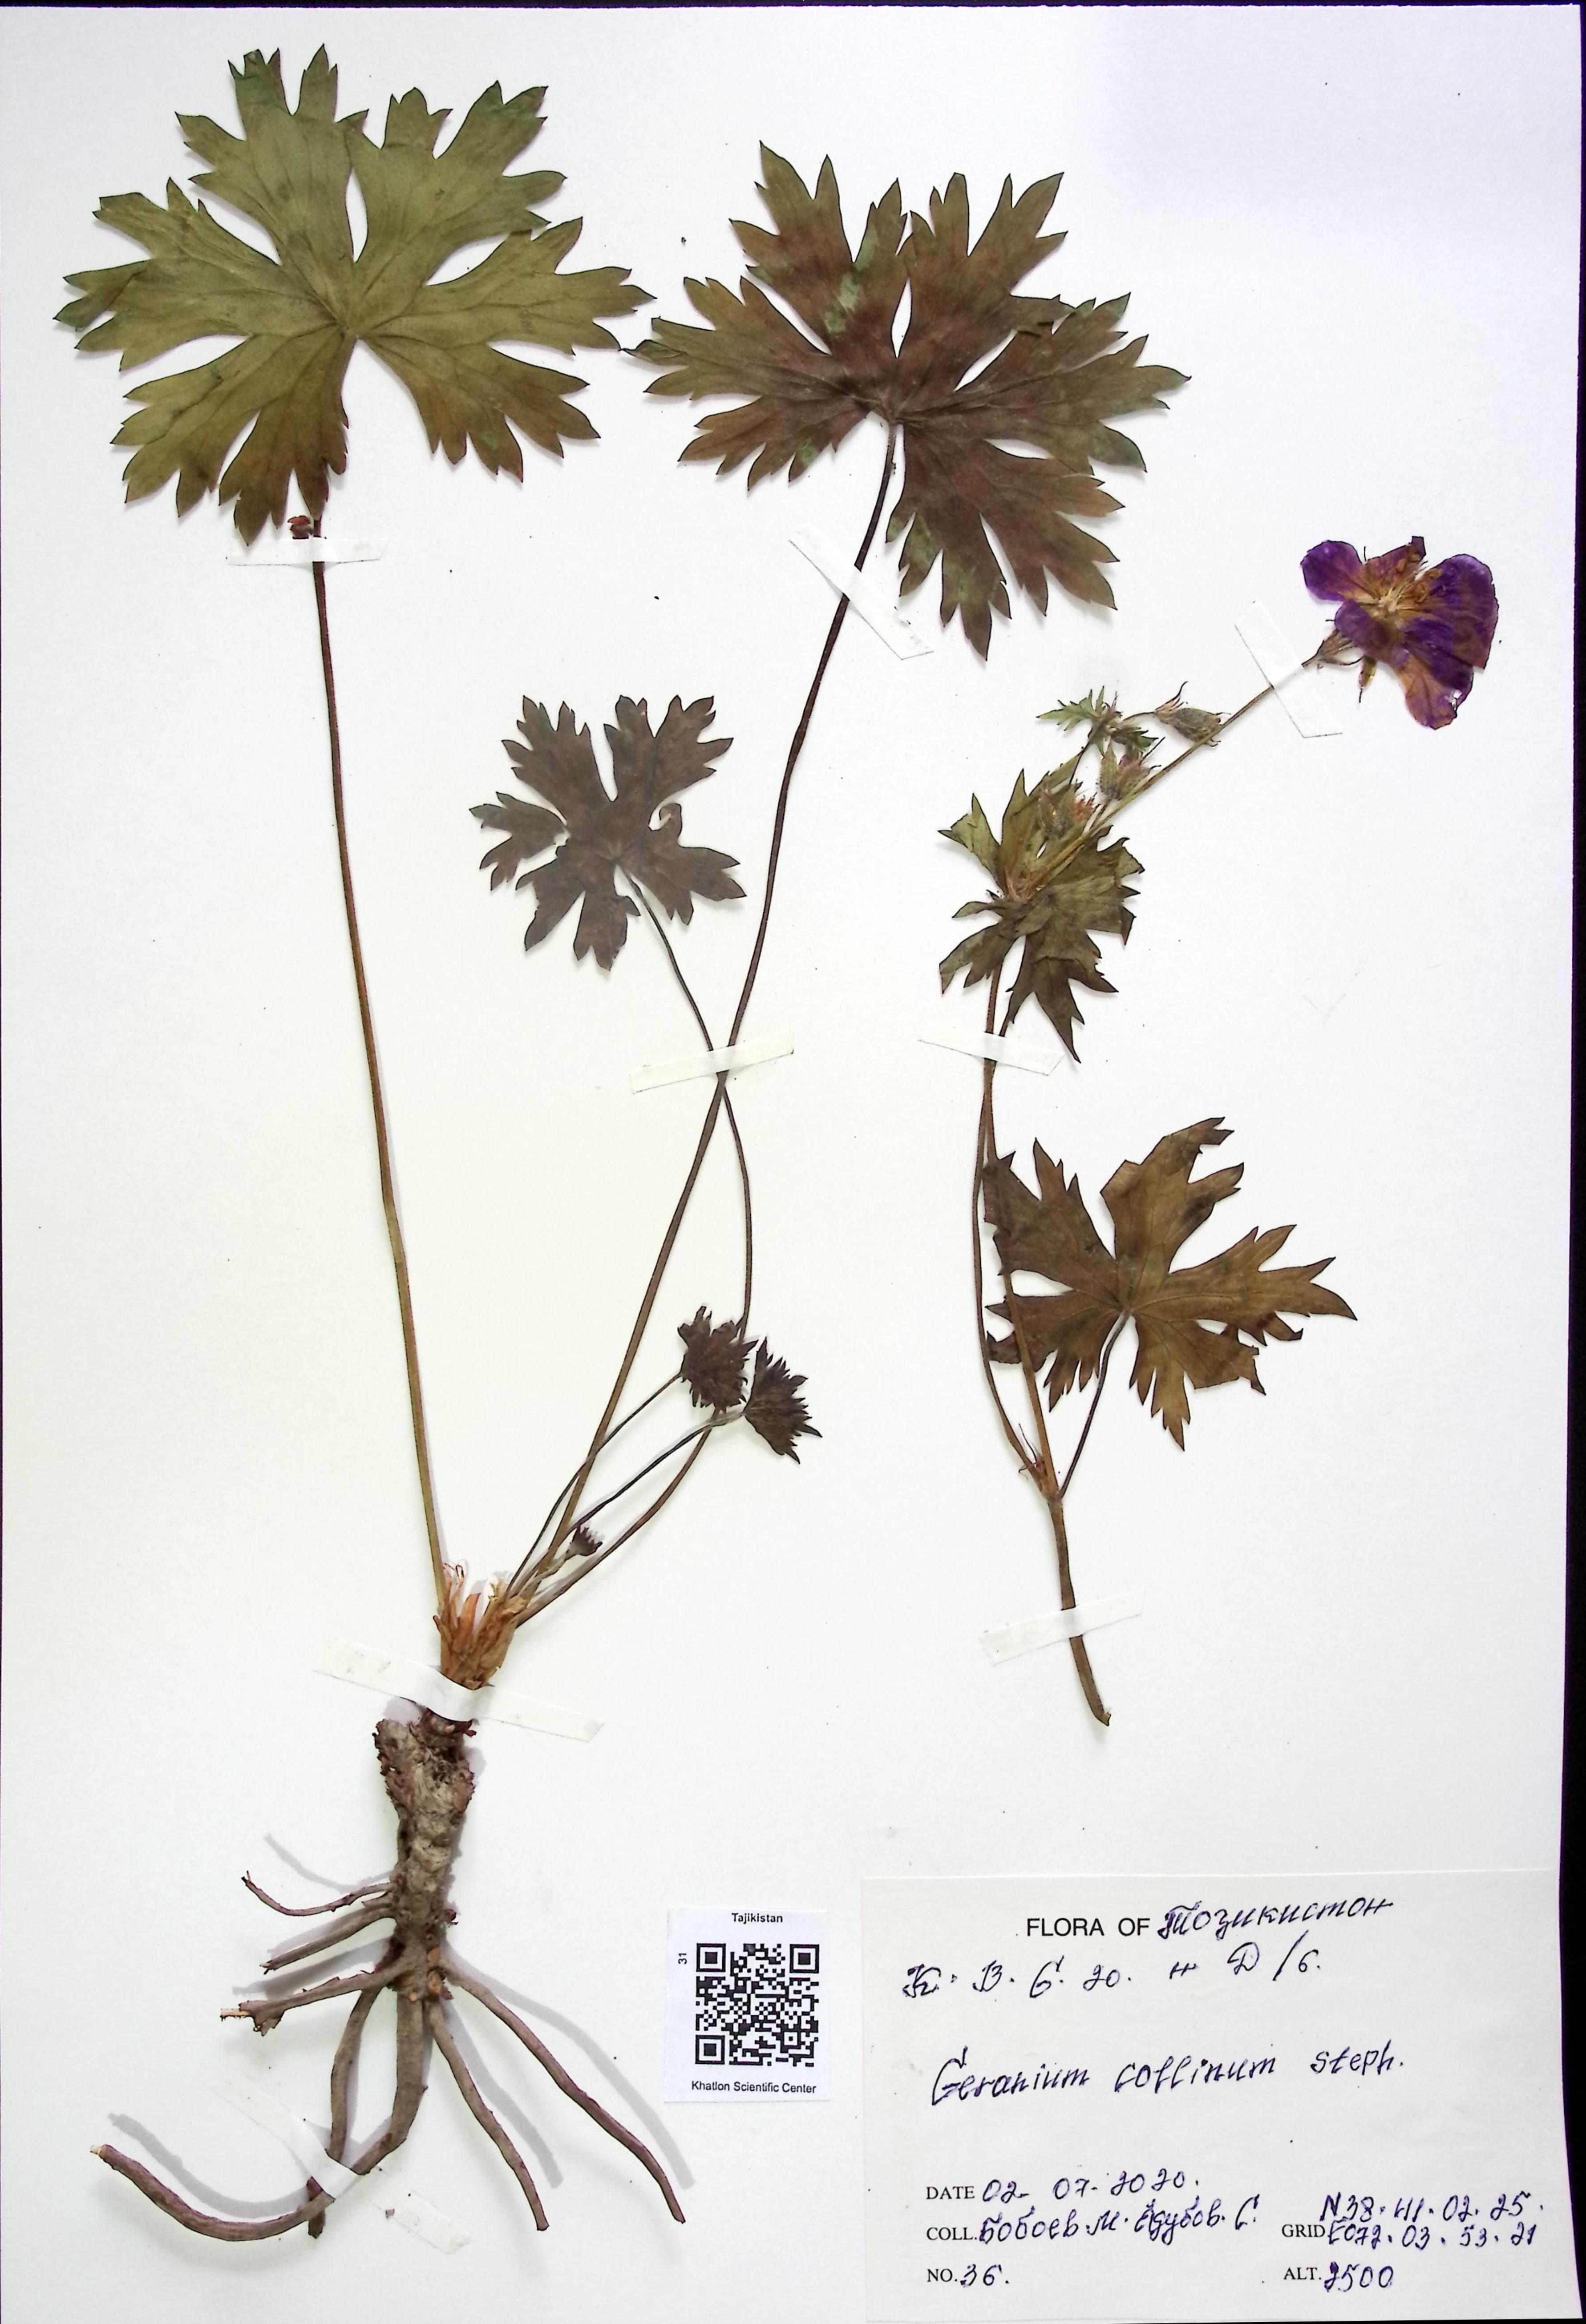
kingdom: Plantae
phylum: Tracheophyta
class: Magnoliopsida
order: Geraniales
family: Geraniaceae
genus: Geranium
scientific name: Geranium collinum
